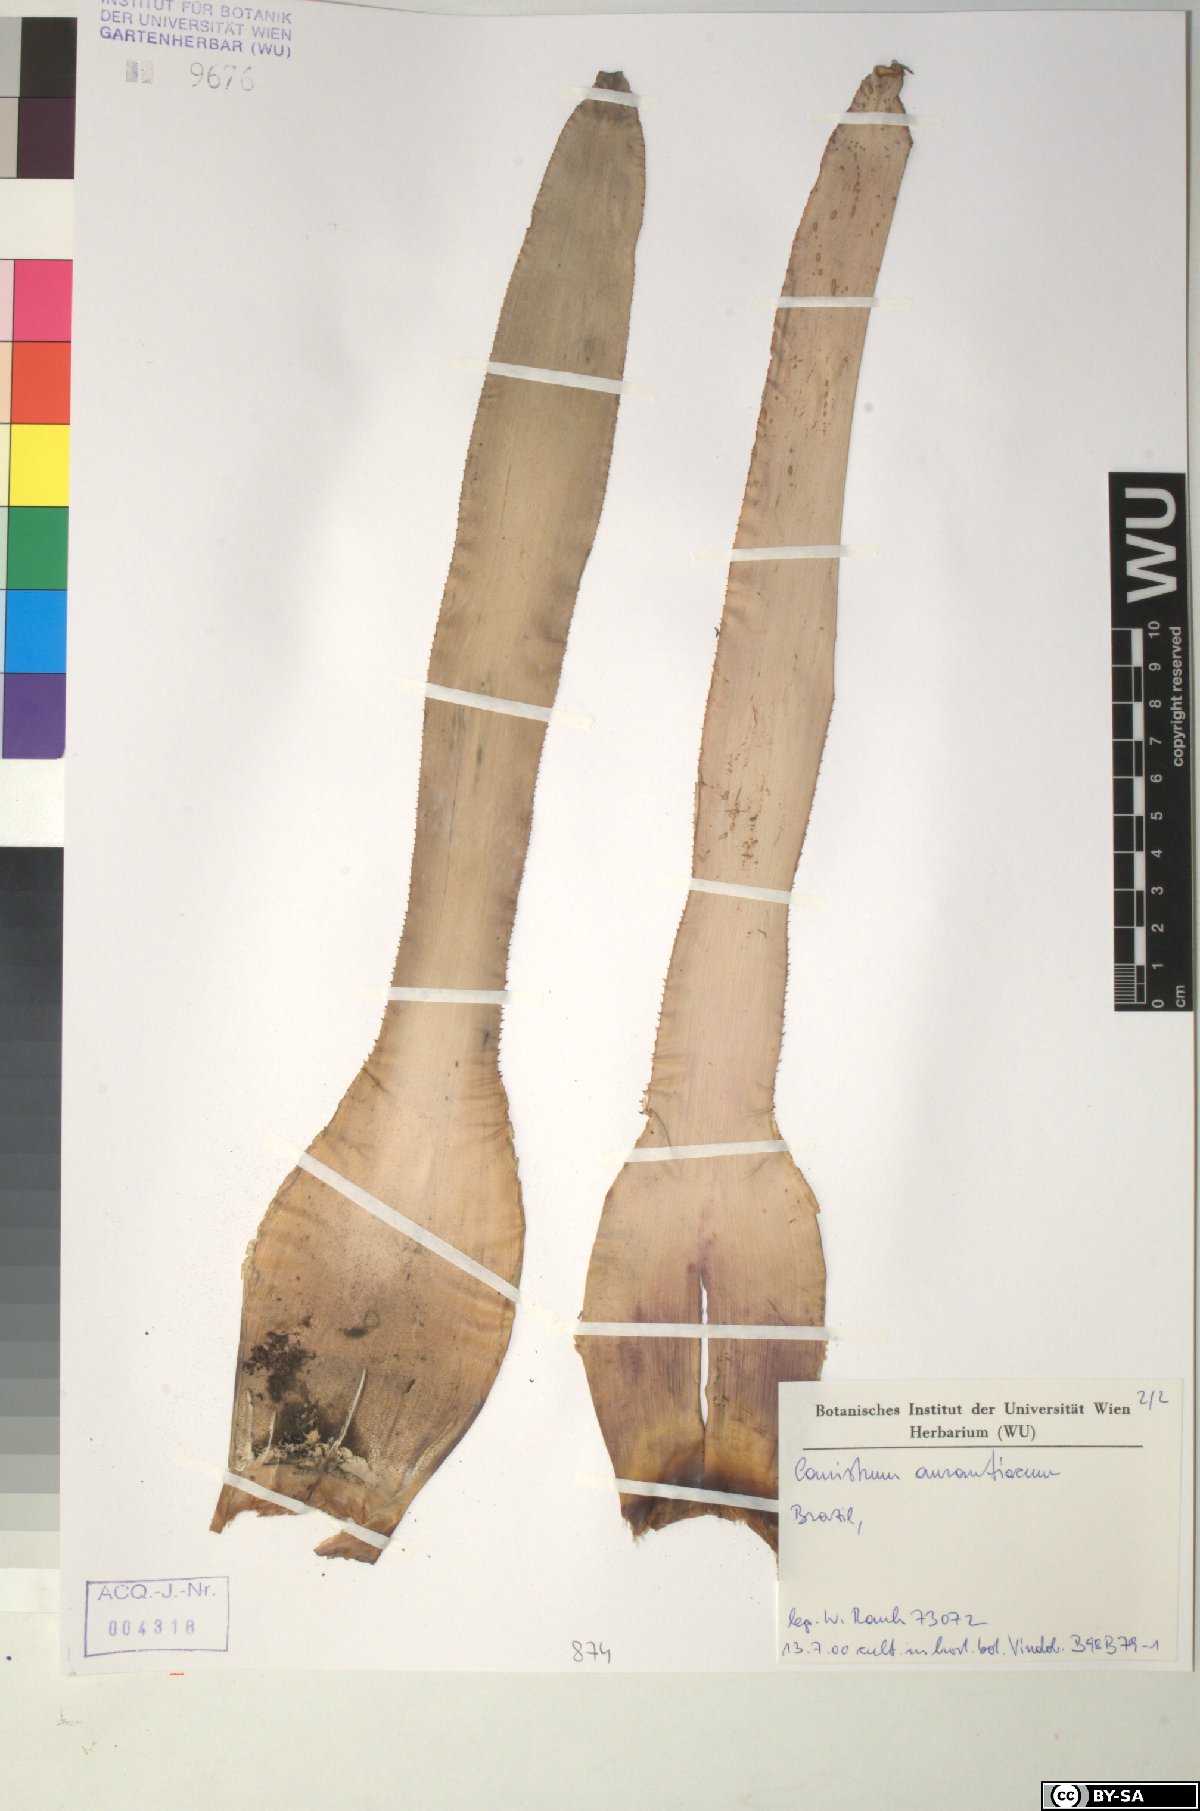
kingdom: Plantae
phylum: Tracheophyta
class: Liliopsida
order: Poales
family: Bromeliaceae
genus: Canistrum
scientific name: Canistrum aurantiacum
